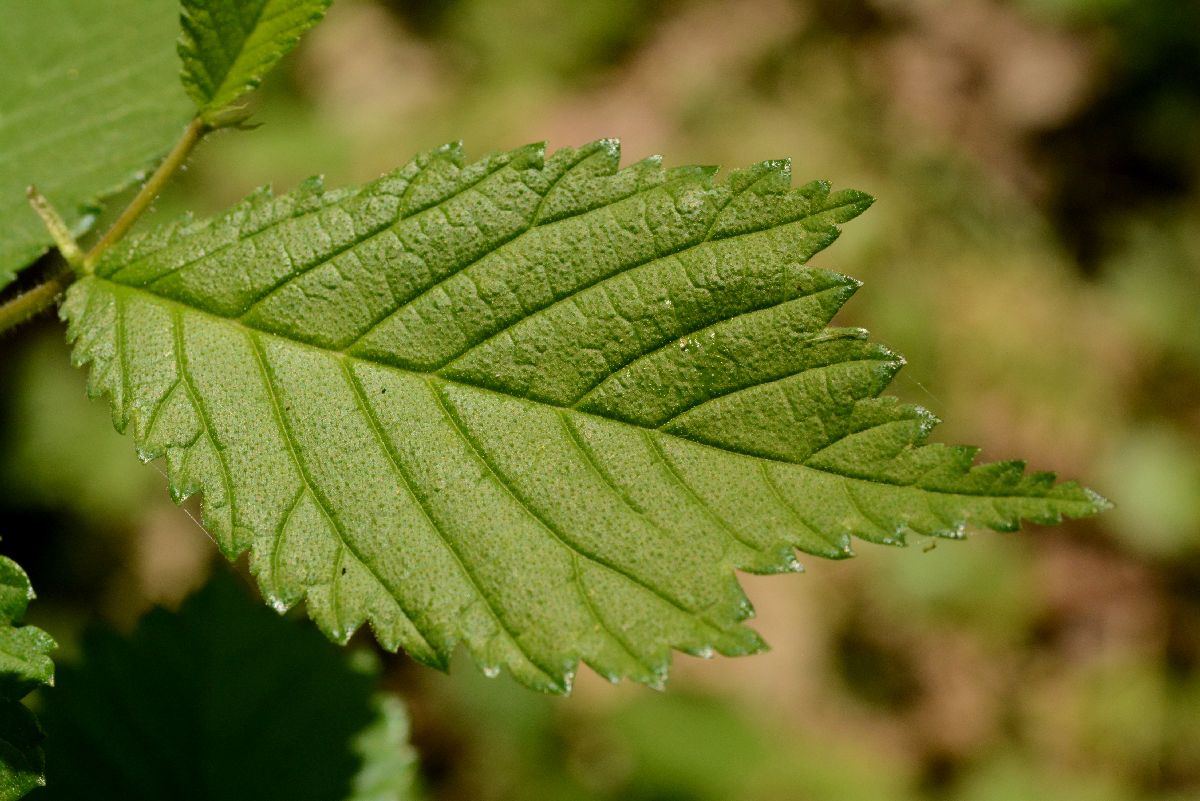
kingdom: Plantae
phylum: Tracheophyta
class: Magnoliopsida
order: Rosales
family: Ulmaceae
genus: Ulmus
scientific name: Ulmus glabra
